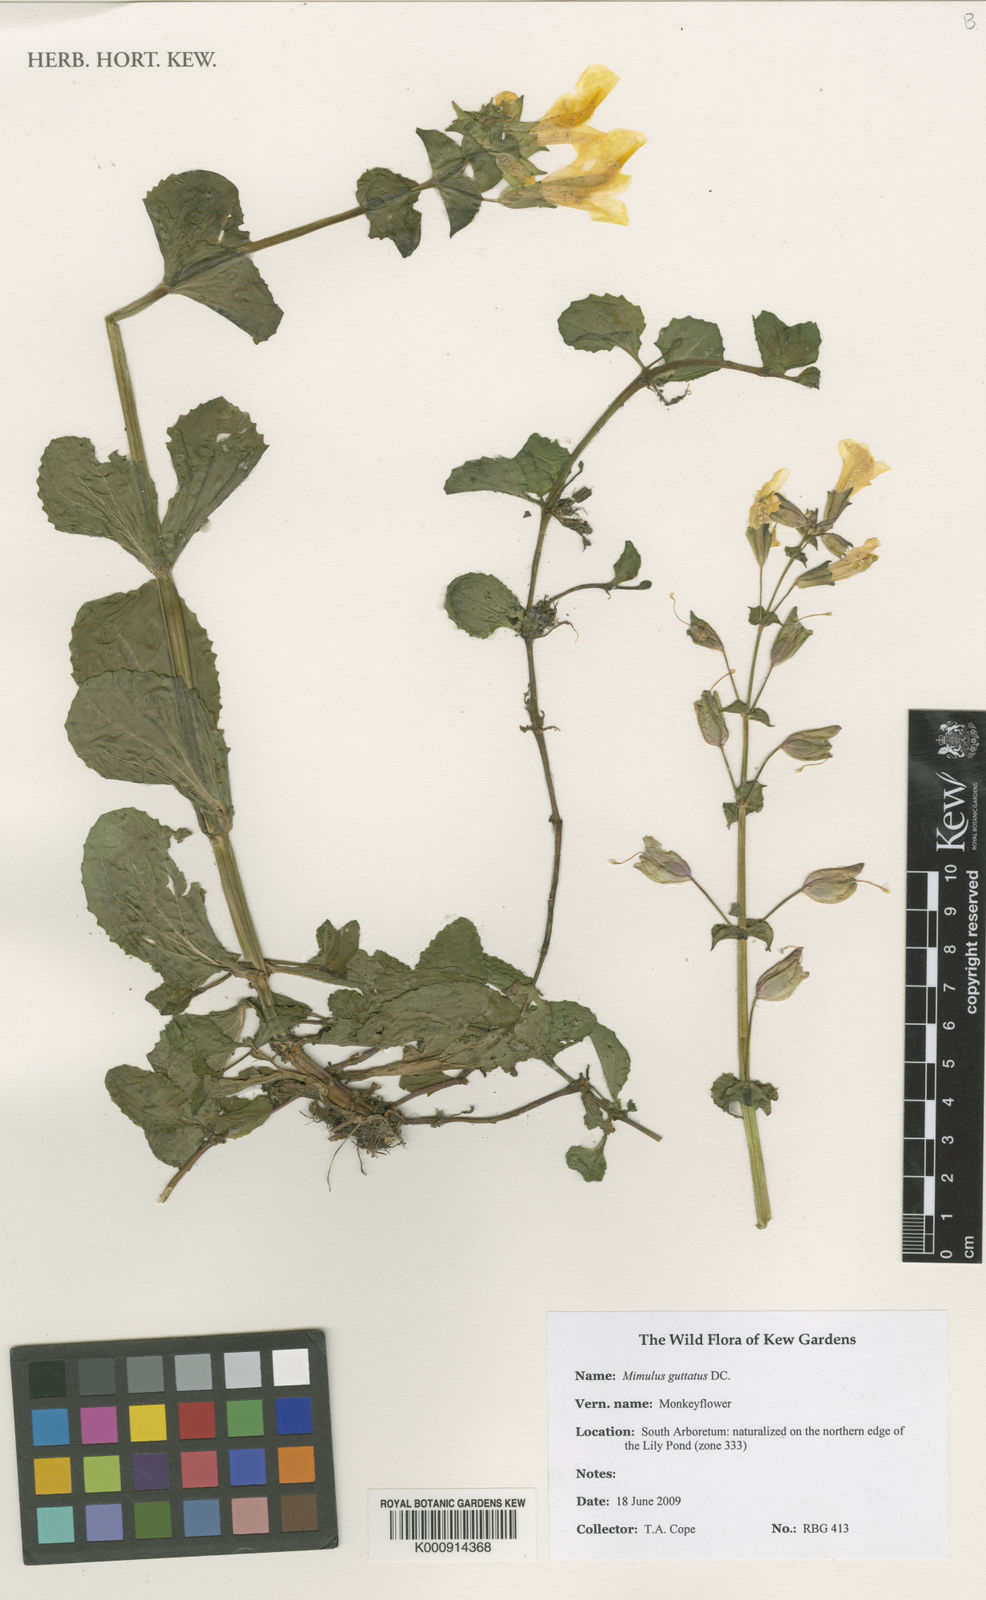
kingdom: Plantae
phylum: Tracheophyta
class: Magnoliopsida
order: Lamiales
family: Phrymaceae
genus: Erythranthe
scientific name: Erythranthe guttata
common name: Monkeyflower
